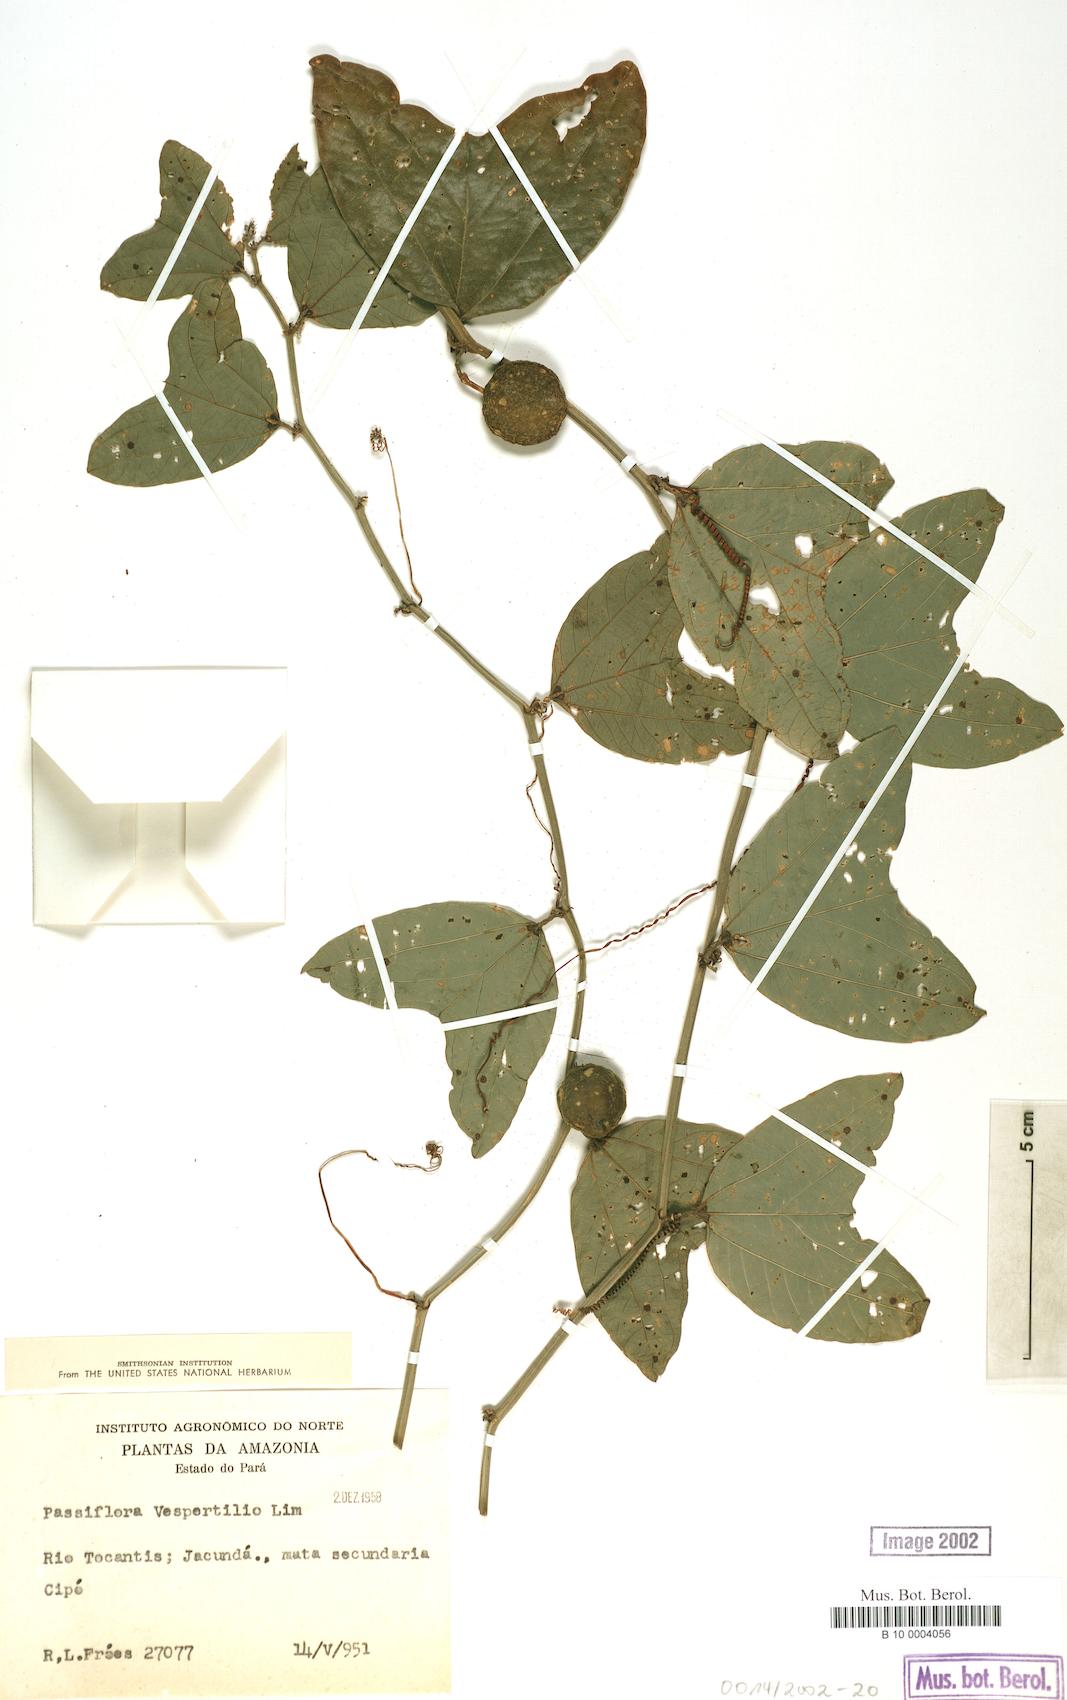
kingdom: Plantae
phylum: Tracheophyta
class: Magnoliopsida
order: Malpighiales
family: Passifloraceae
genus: Passiflora
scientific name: Passiflora vespertilio
